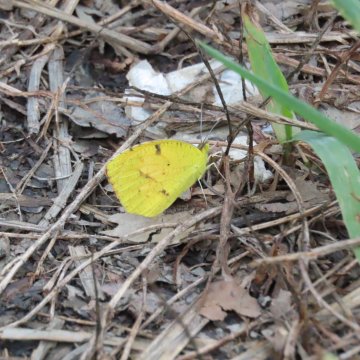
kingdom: Animalia
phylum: Arthropoda
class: Insecta
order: Lepidoptera
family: Pieridae
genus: Abaeis
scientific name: Abaeis nicippe
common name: Sleepy Orange
